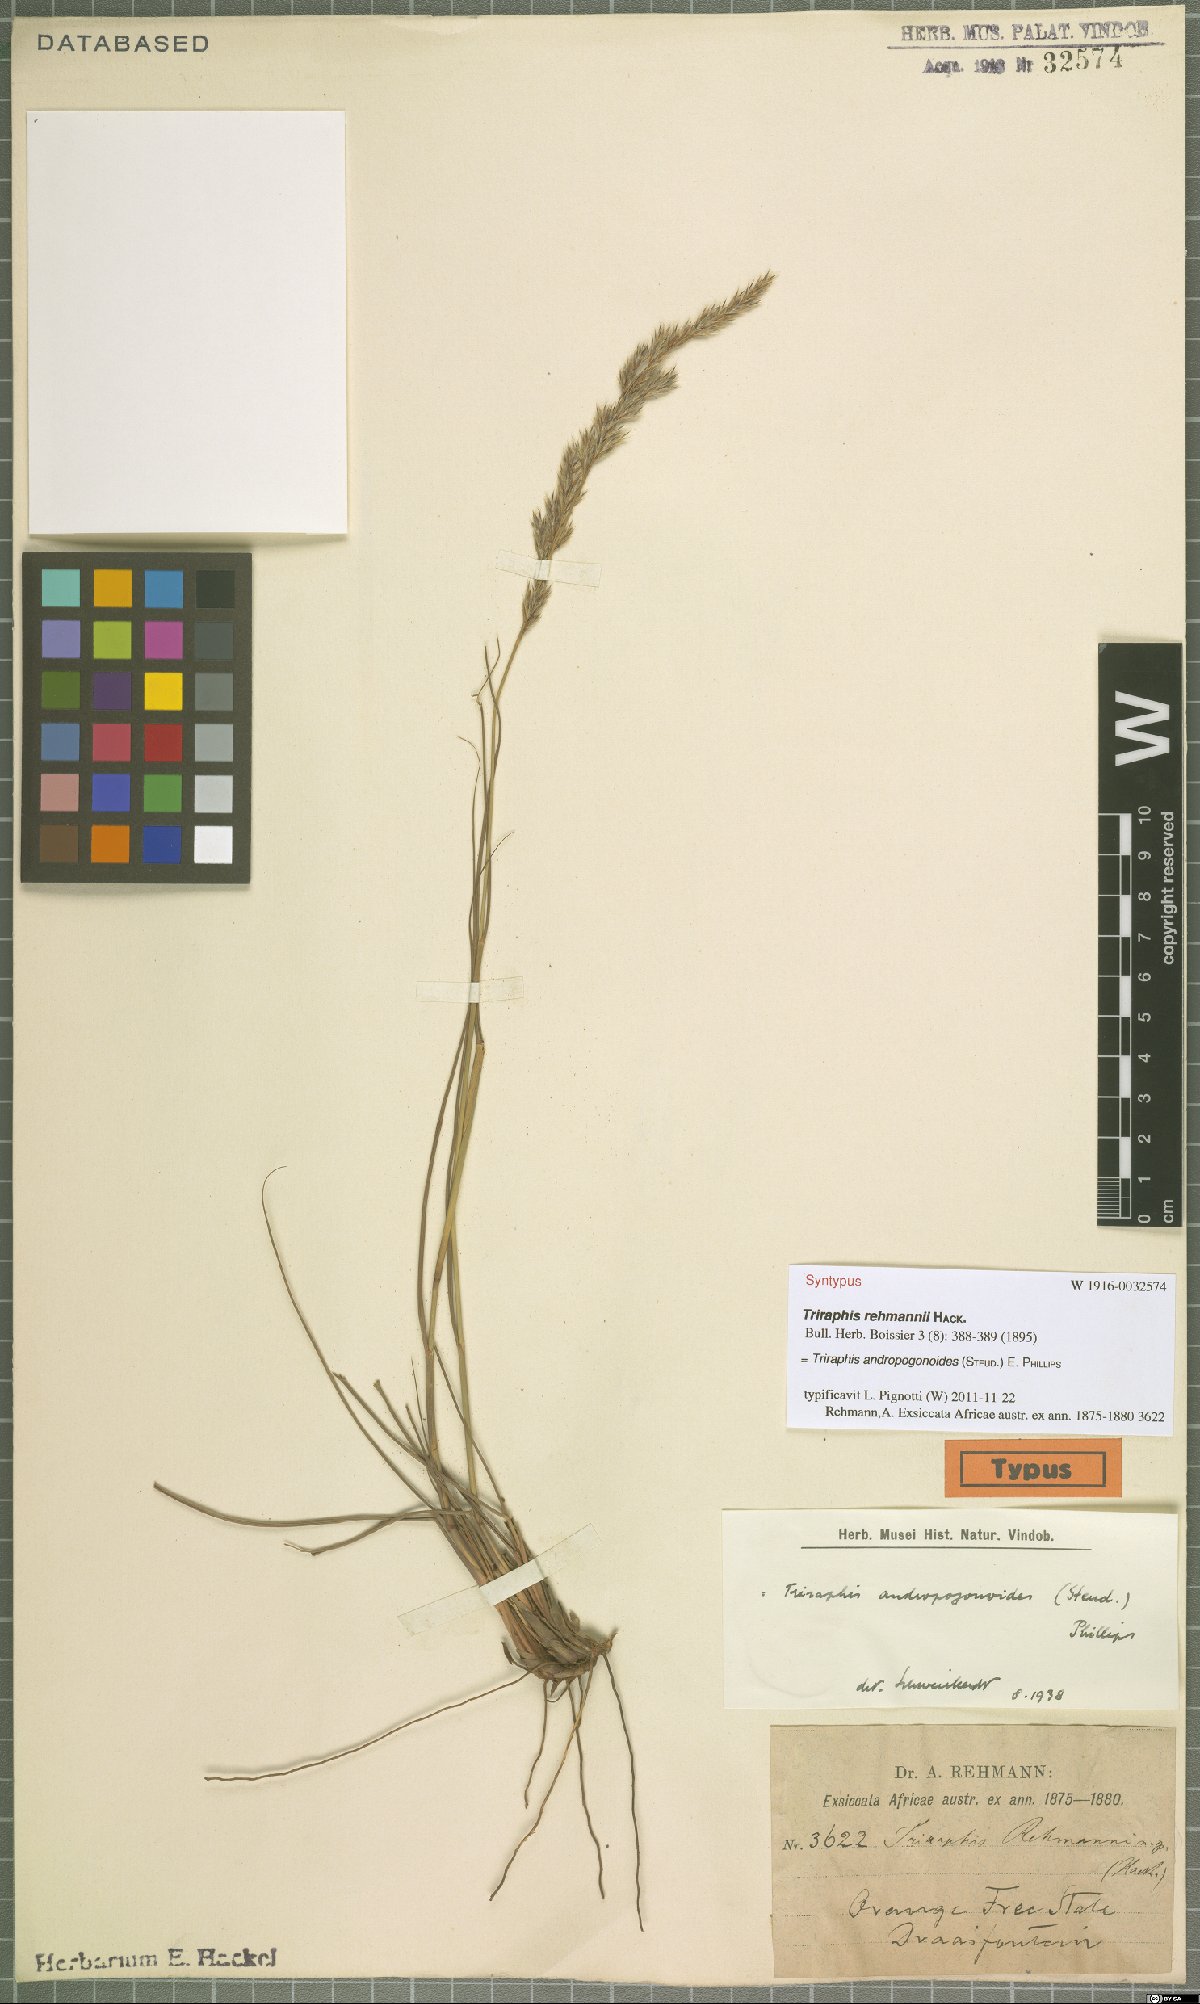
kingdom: Plantae
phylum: Tracheophyta
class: Liliopsida
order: Poales
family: Poaceae
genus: Triraphis
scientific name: Triraphis andropogonoides
